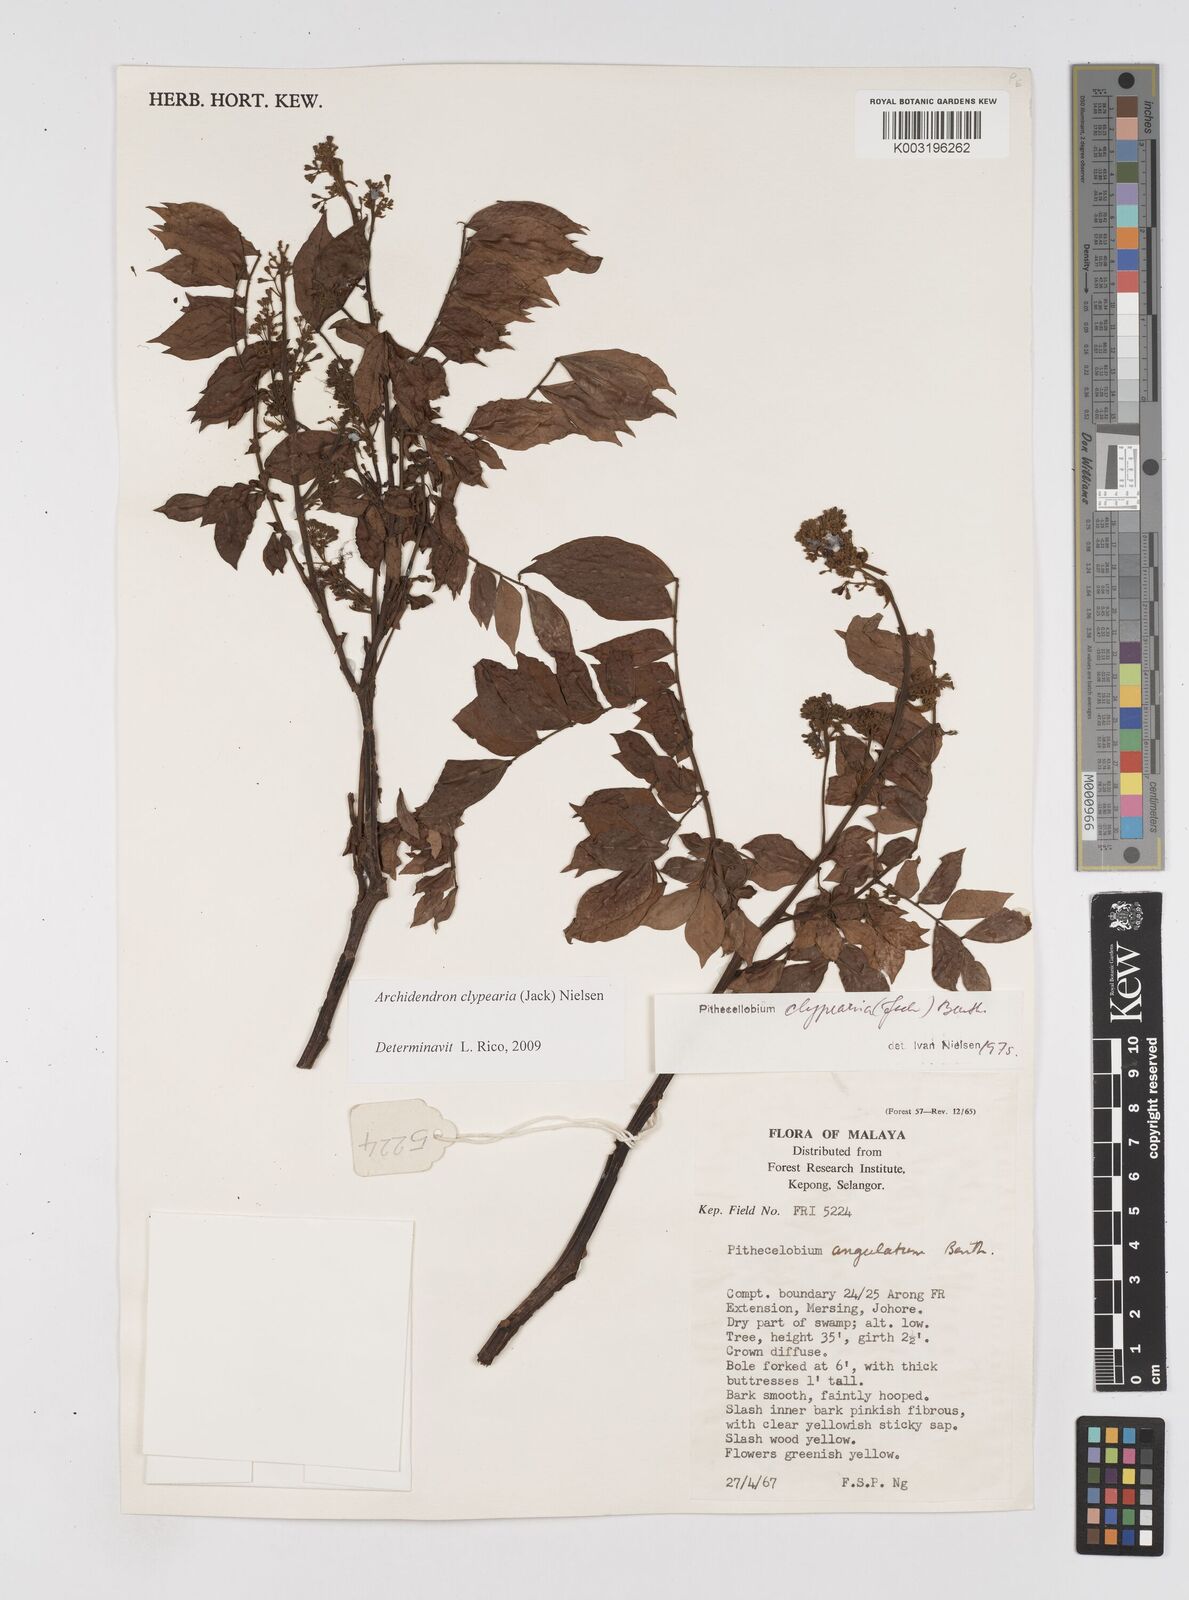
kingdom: Plantae
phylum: Tracheophyta
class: Magnoliopsida
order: Fabales
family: Fabaceae
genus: Archidendron
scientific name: Archidendron clypearia
